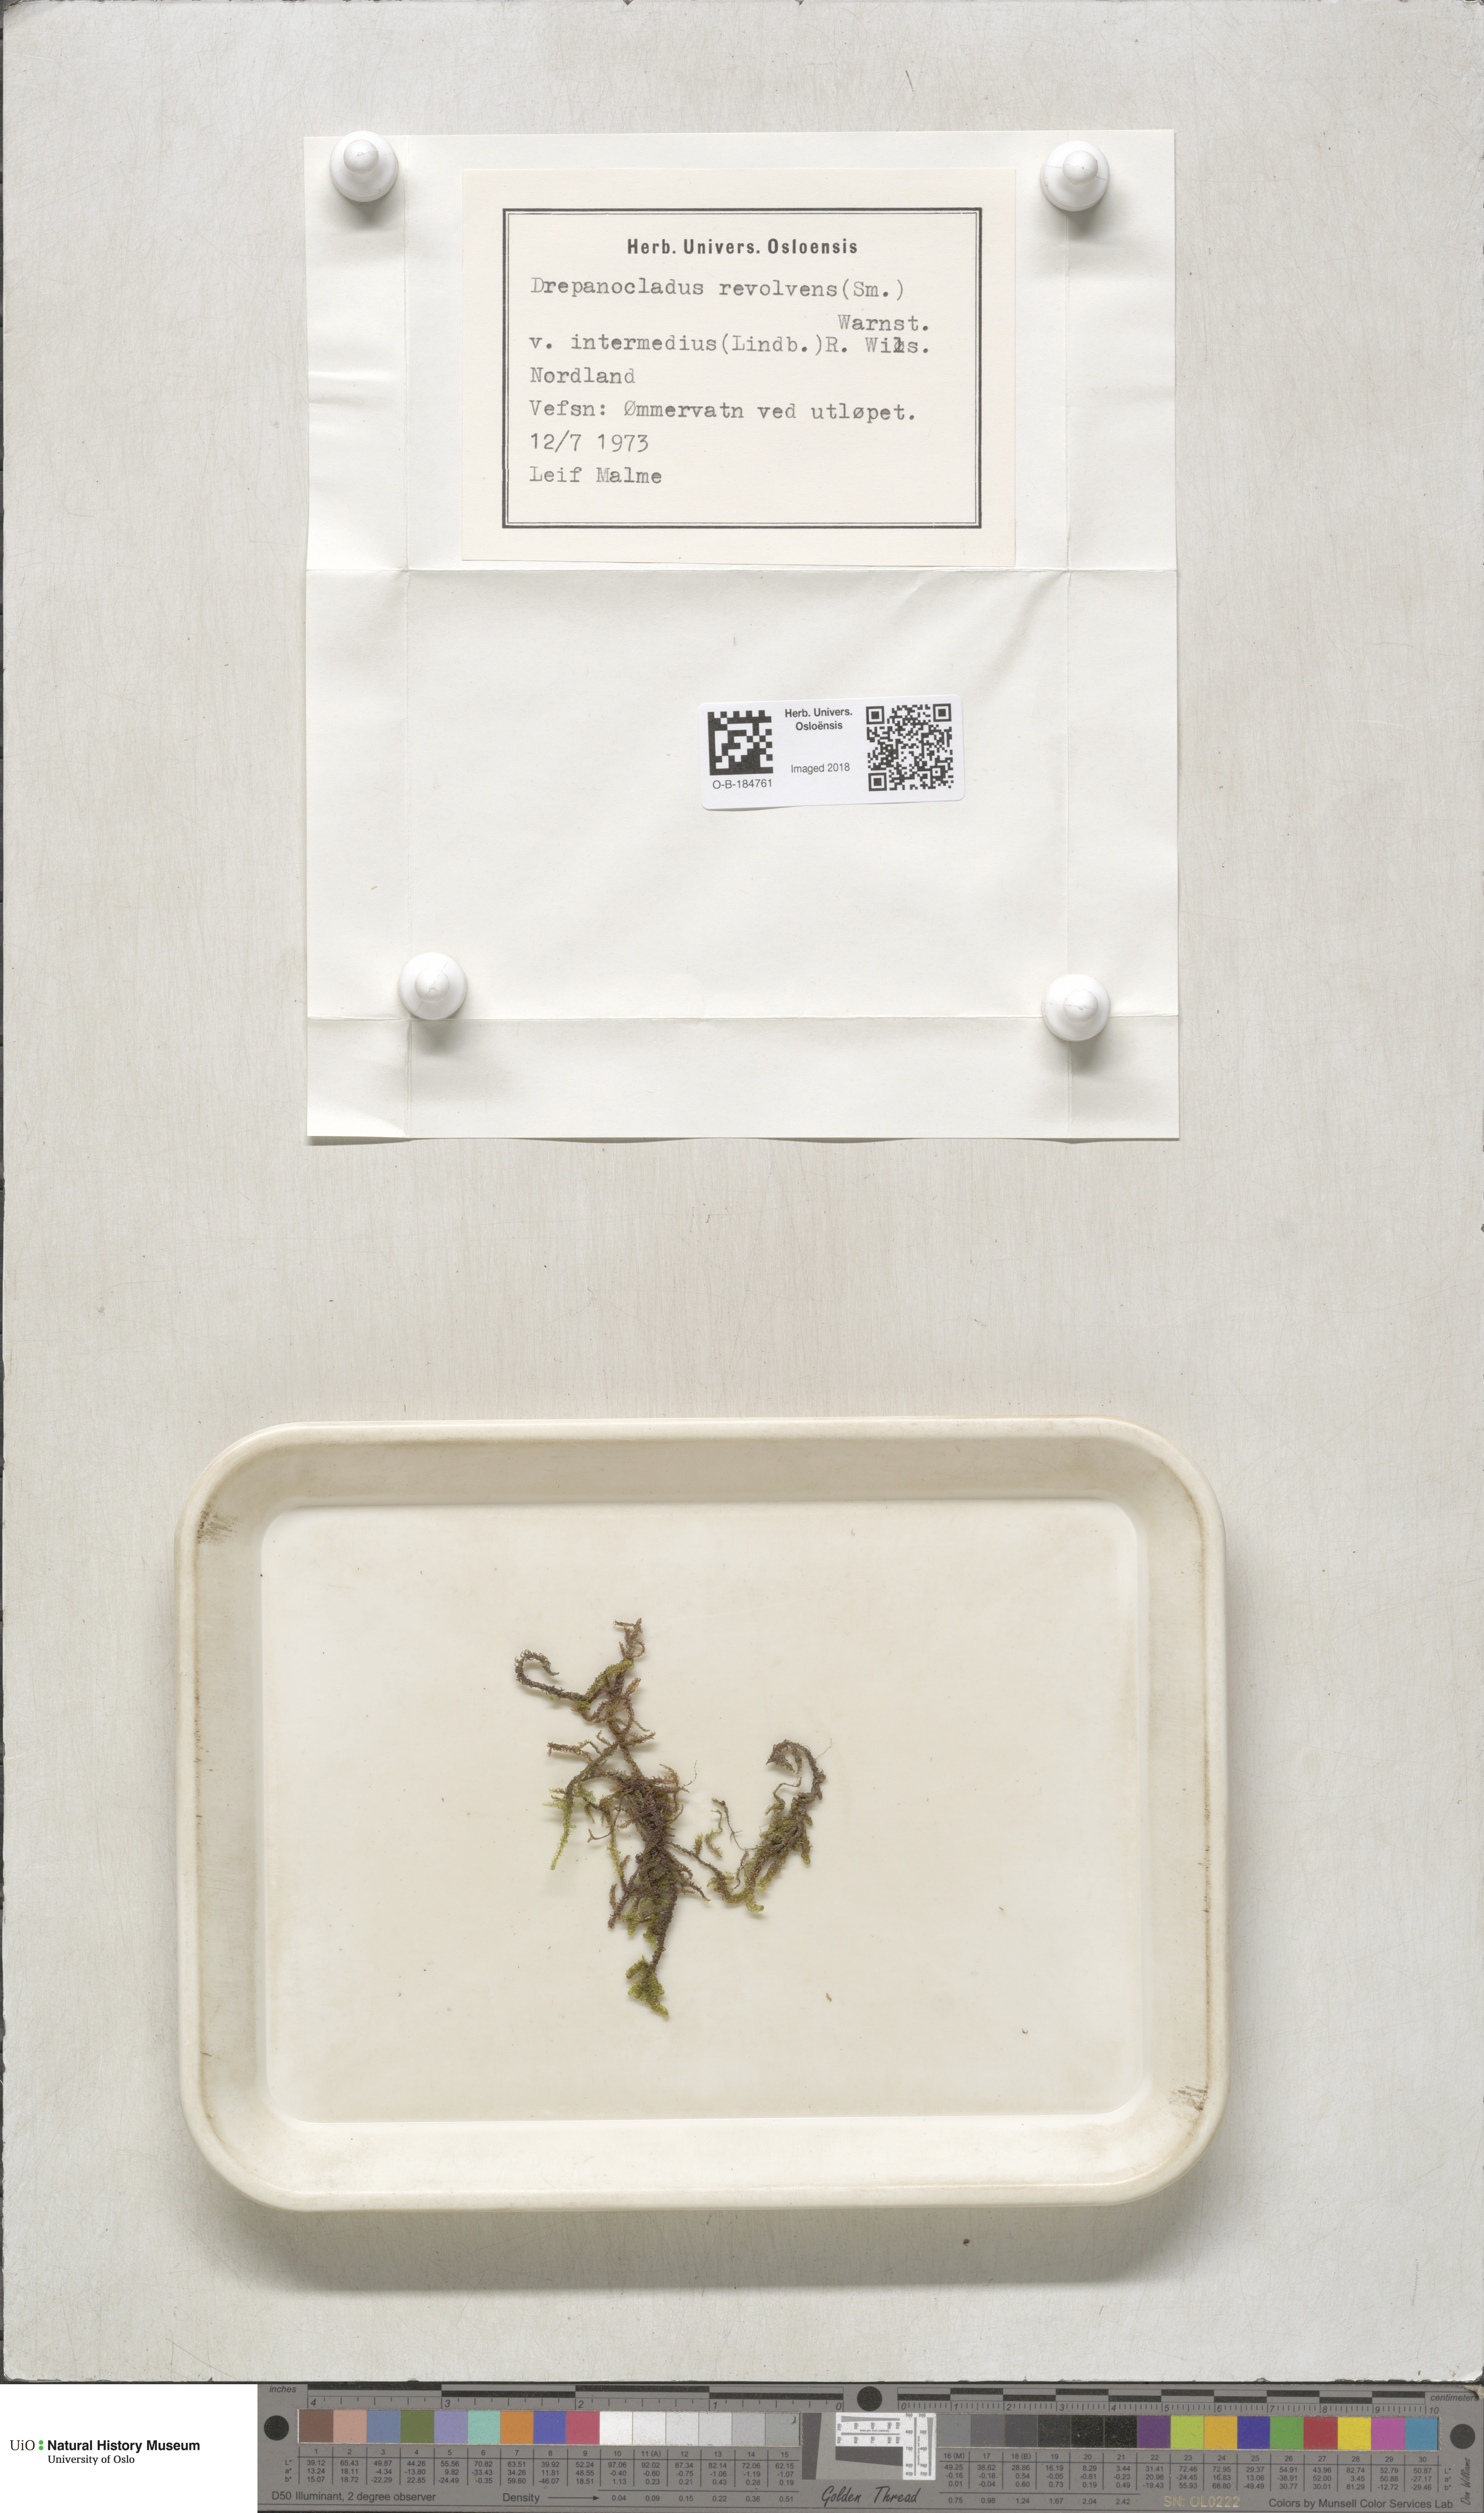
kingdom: Plantae
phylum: Bryophyta
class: Bryopsida
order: Hypnales
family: Scorpidiaceae
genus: Scorpidium
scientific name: Scorpidium cossonii
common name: Cosson's hook moss
